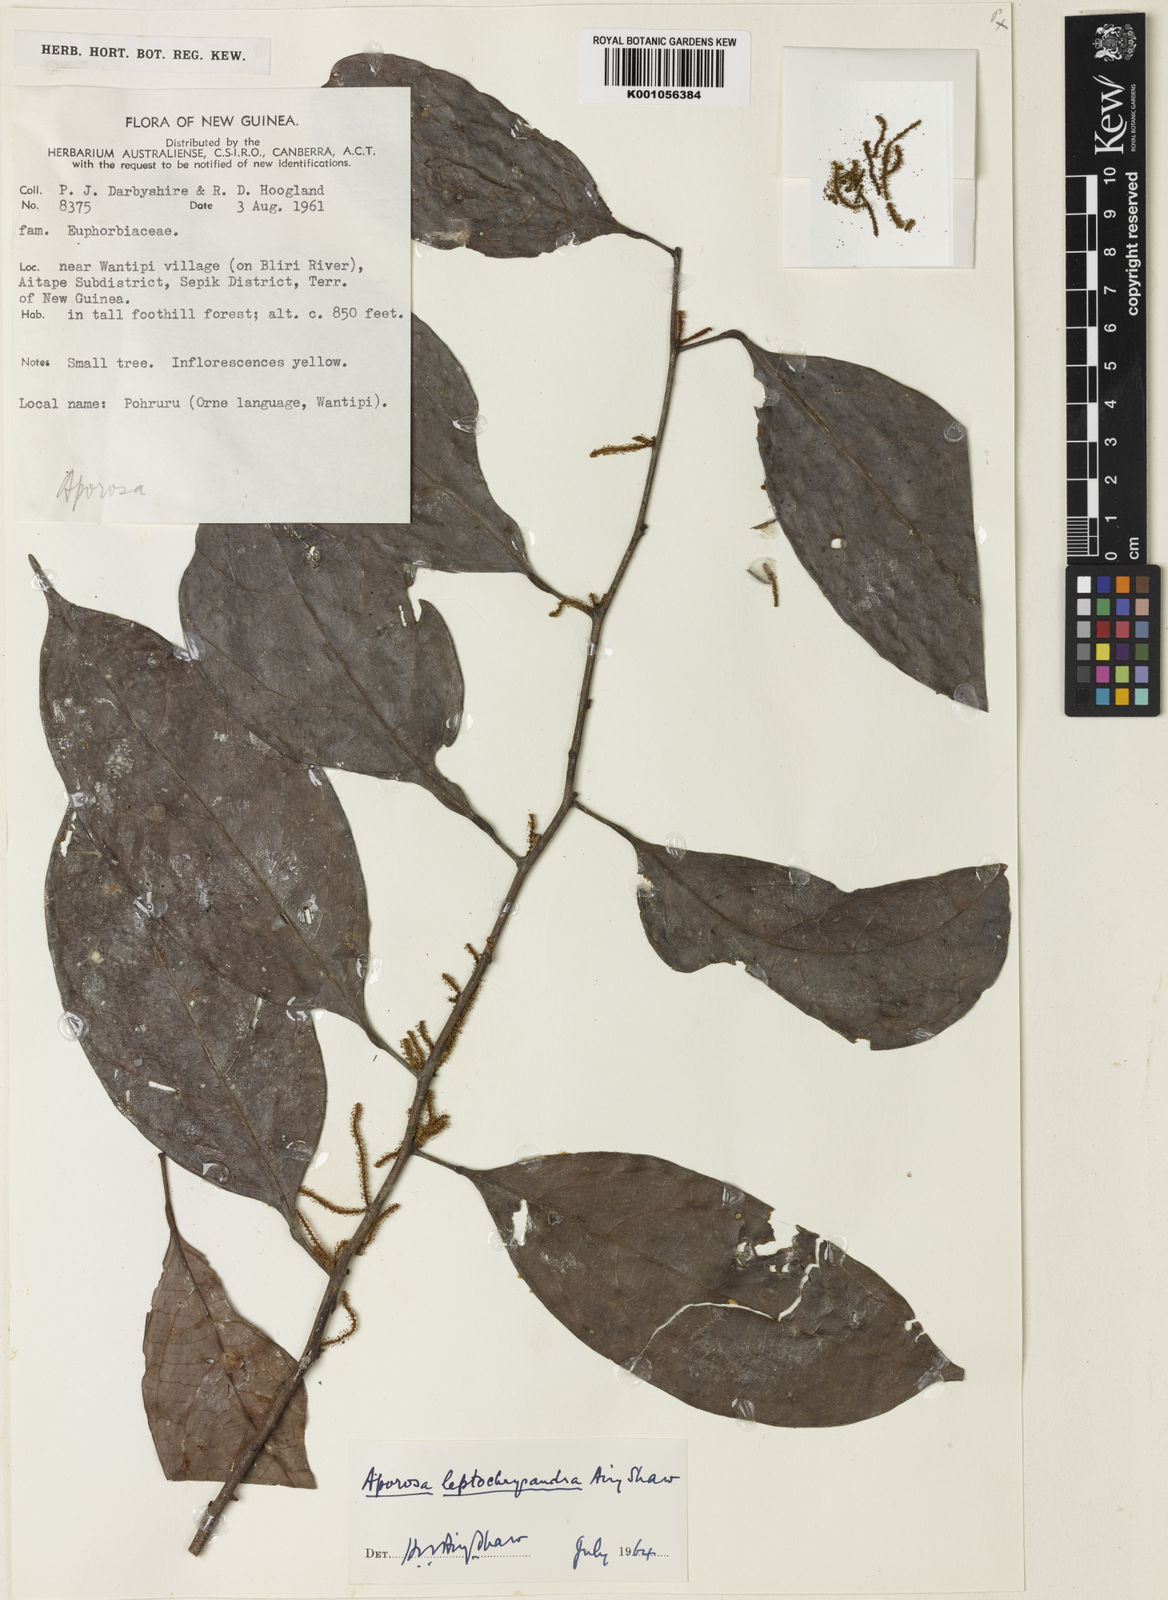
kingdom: Plantae
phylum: Tracheophyta
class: Magnoliopsida
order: Malpighiales
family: Phyllanthaceae
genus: Aporosa
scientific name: Aporosa leptochrysandra
